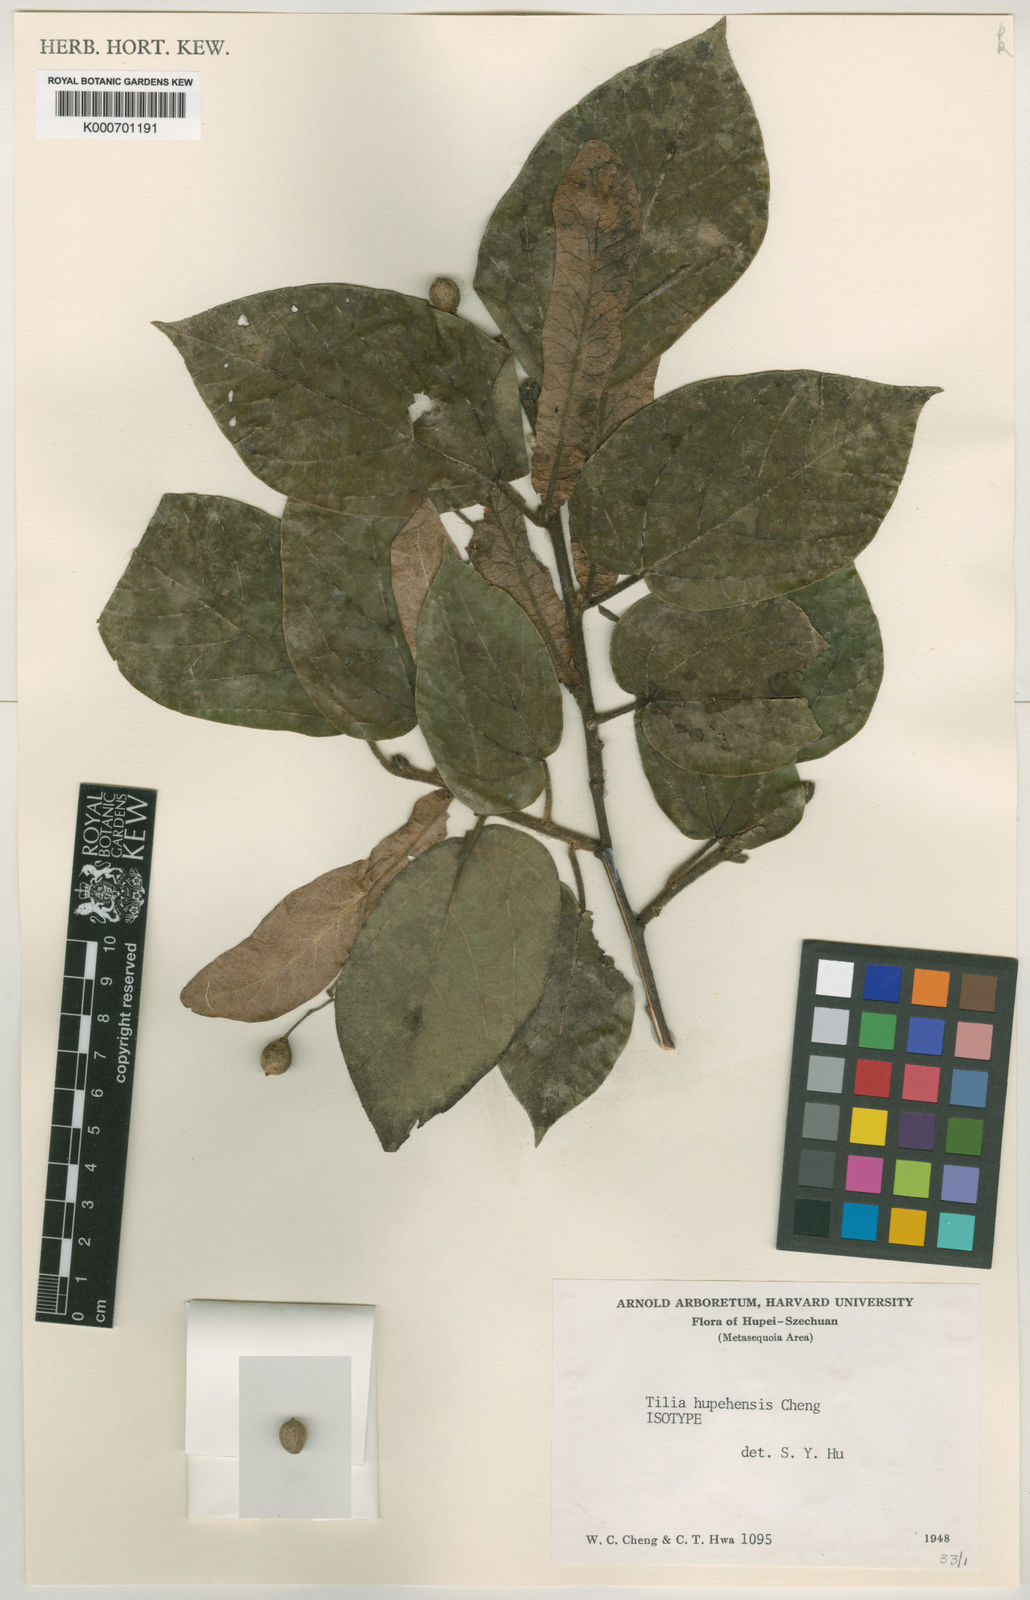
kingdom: Plantae
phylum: Tracheophyta
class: Magnoliopsida
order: Malvales
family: Malvaceae
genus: Tilia
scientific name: Tilia tuan
